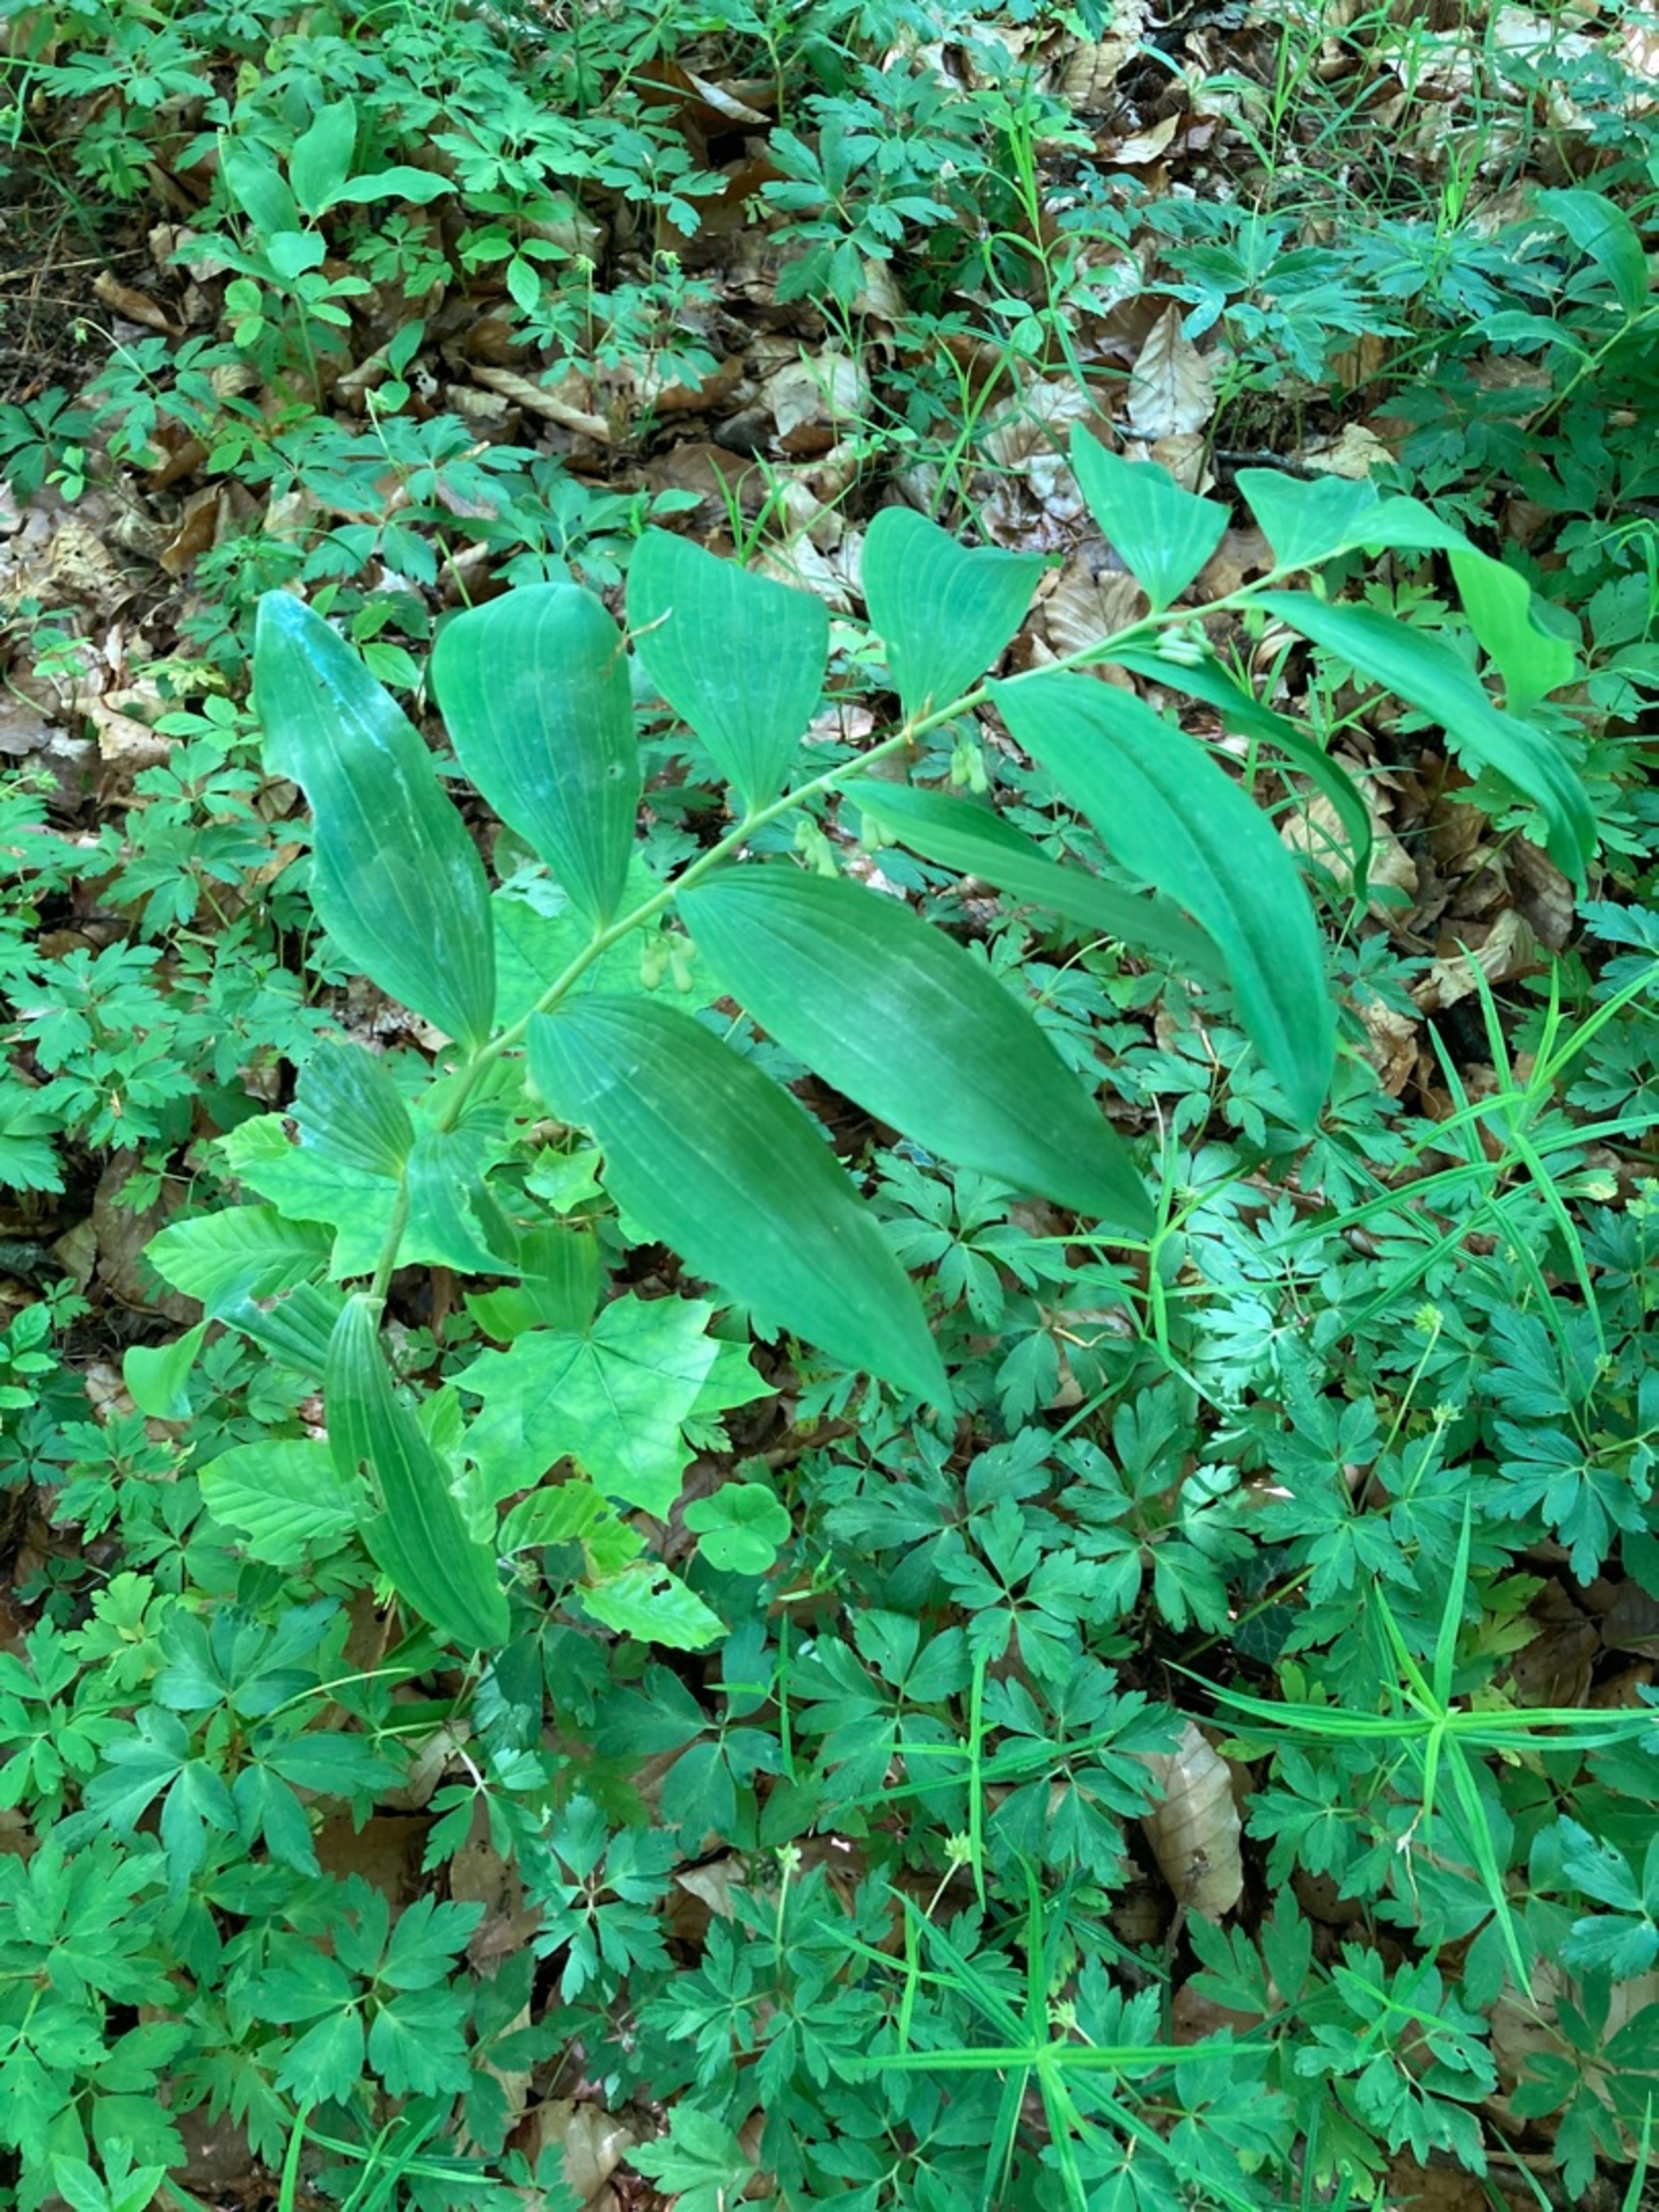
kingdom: Plantae
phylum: Tracheophyta
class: Liliopsida
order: Asparagales
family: Asparagaceae
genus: Polygonatum
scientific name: Polygonatum multiflorum
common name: Stor konval
